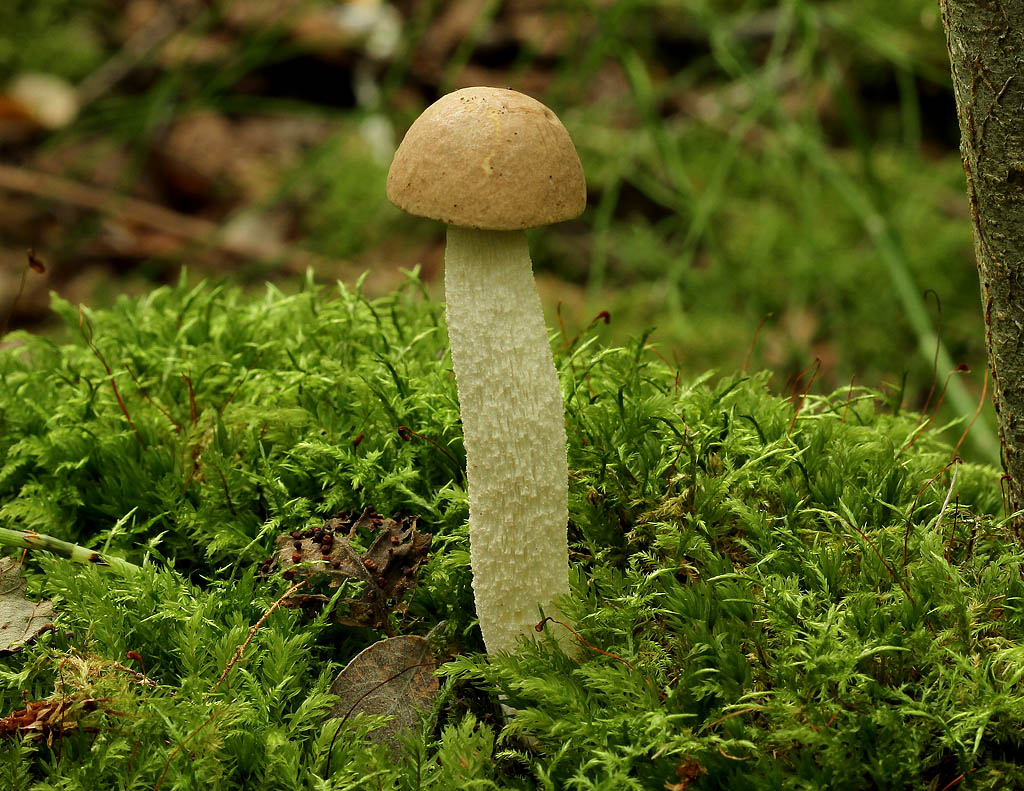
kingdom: Fungi
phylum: Basidiomycota
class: Agaricomycetes
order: Boletales
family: Boletaceae
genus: Leccinum
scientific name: Leccinum cyaneobasileucum
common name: almindelig skælrørhat
